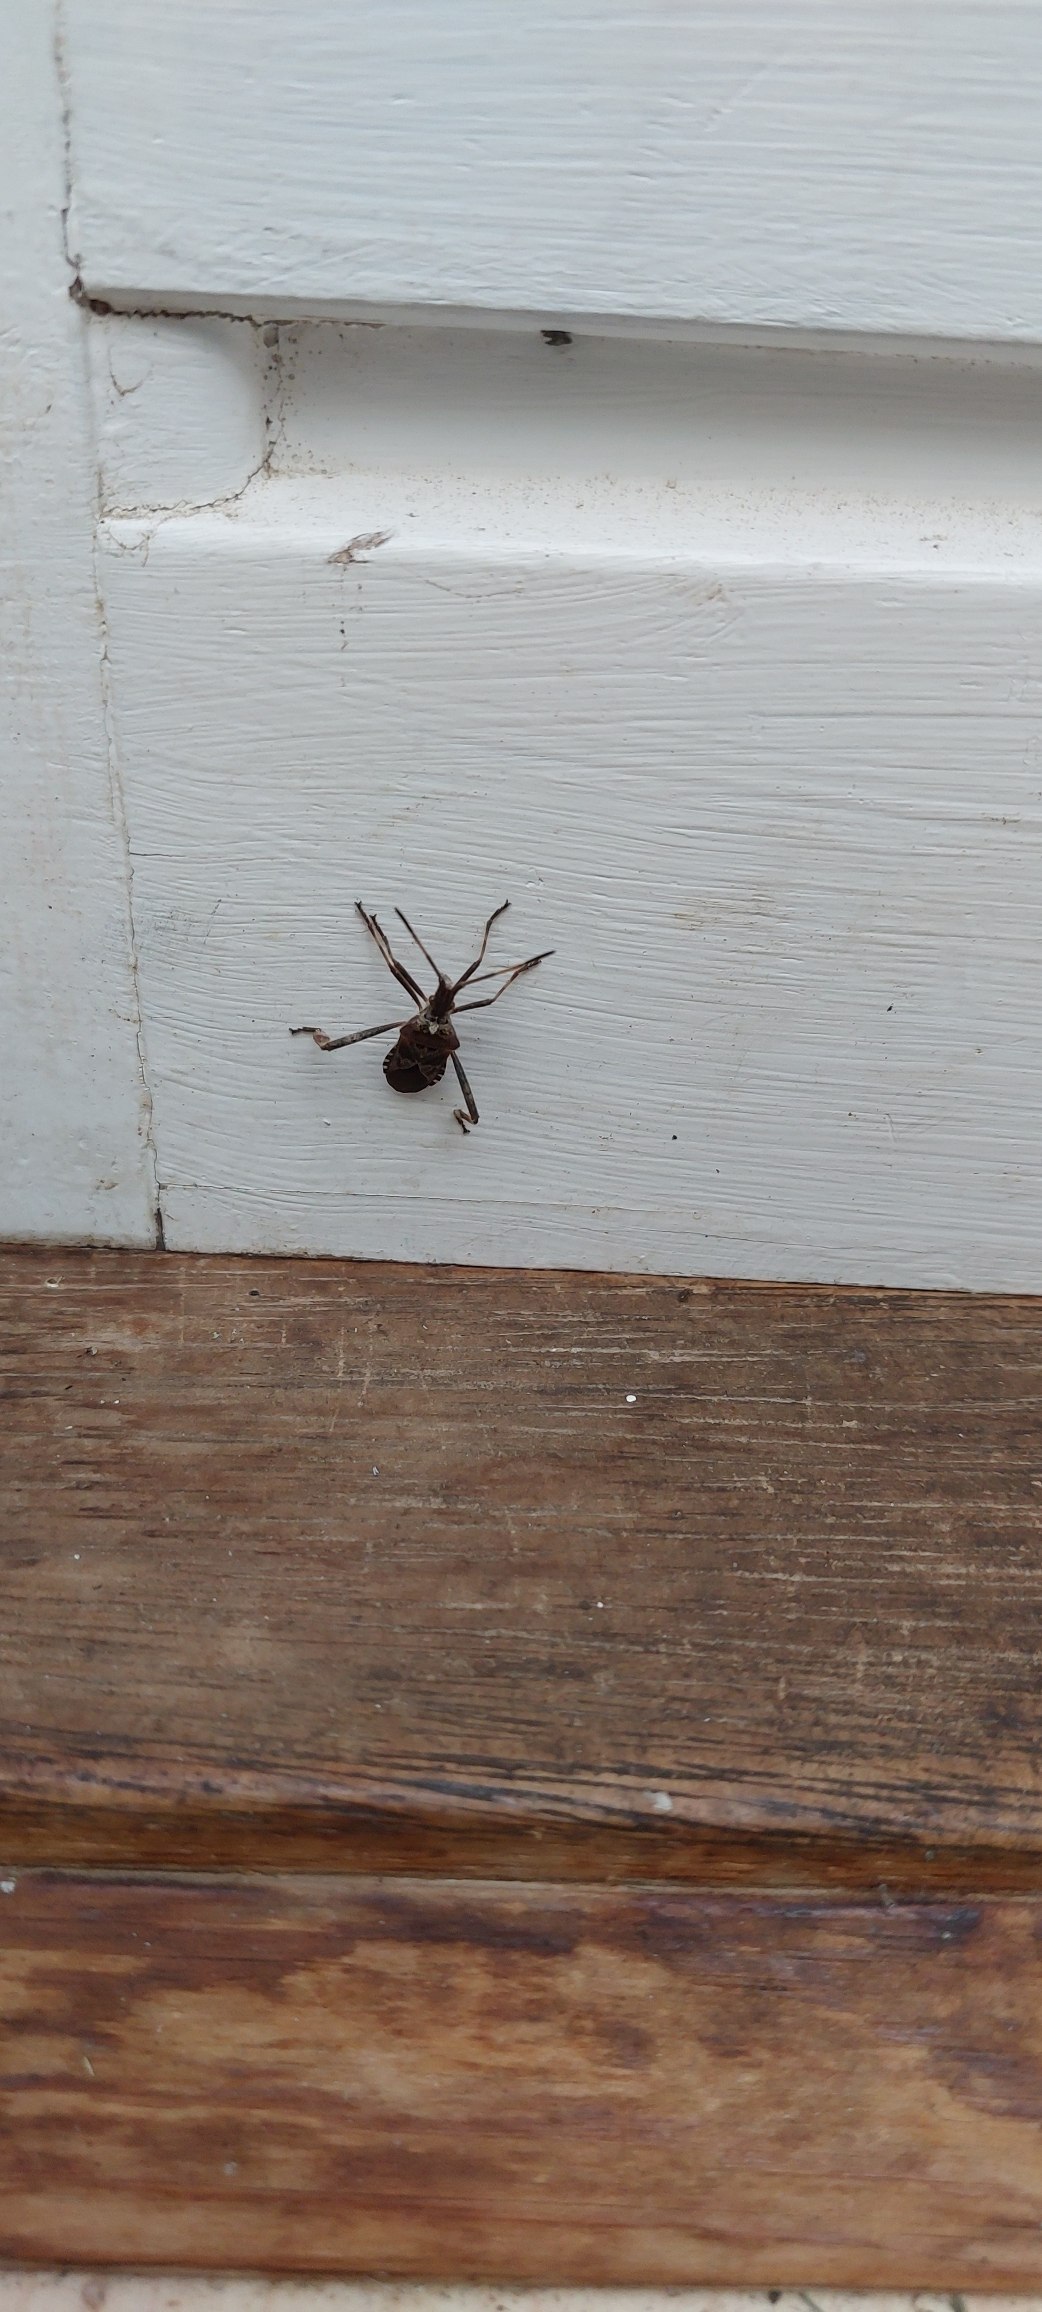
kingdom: Animalia
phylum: Arthropoda
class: Insecta
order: Hemiptera
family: Coreidae
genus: Leptoglossus
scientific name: Leptoglossus occidentalis
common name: Amerikansk fyrretæge
